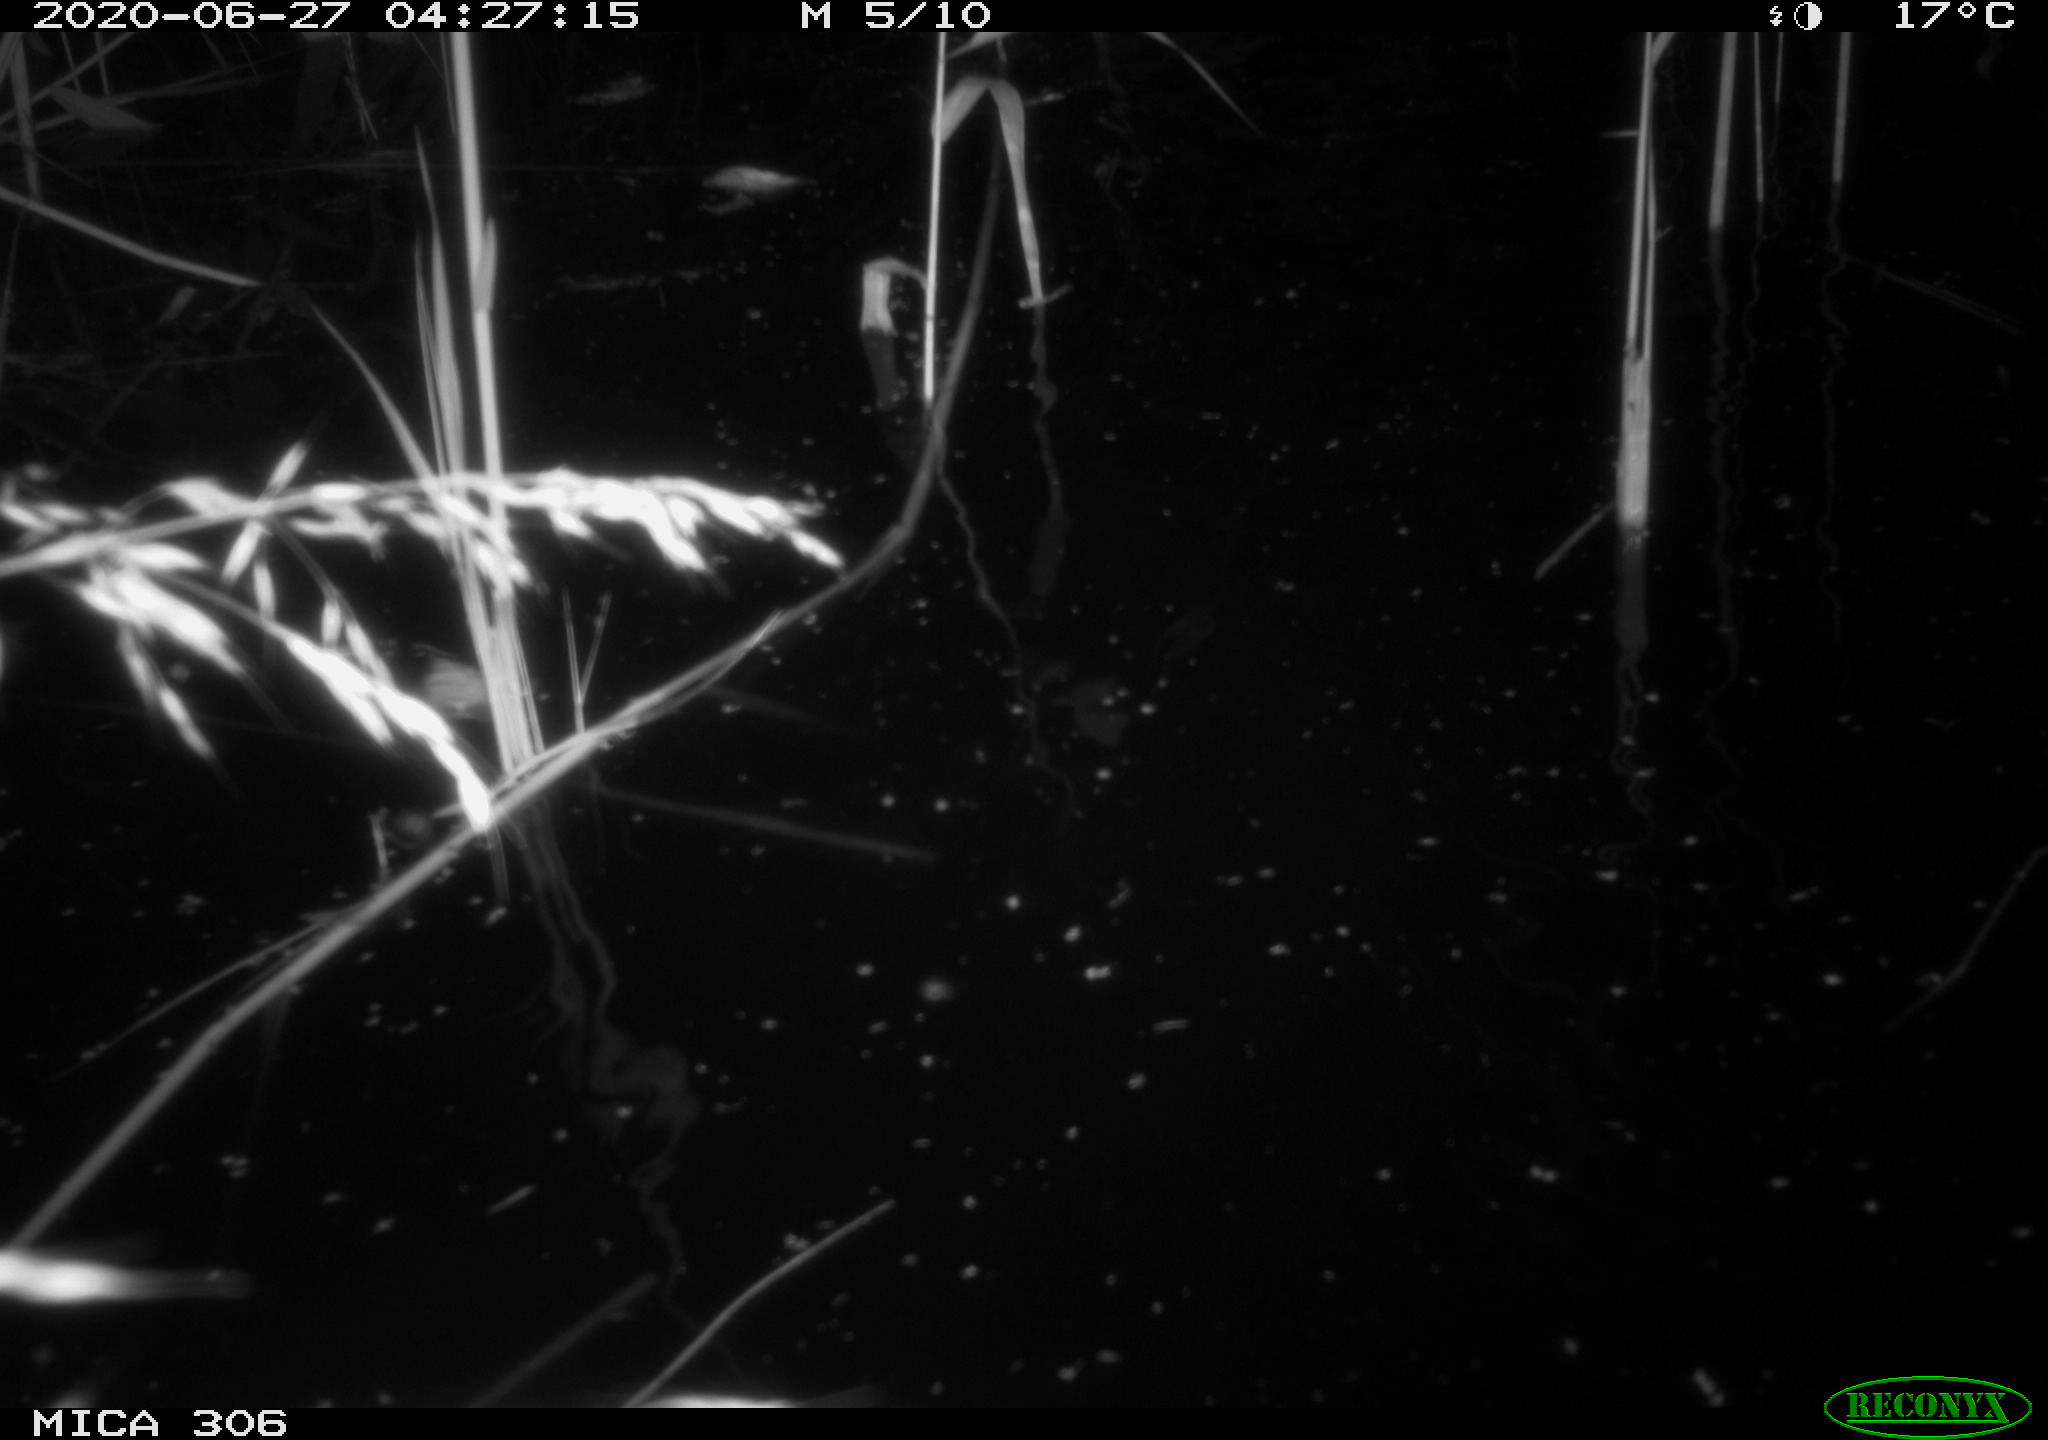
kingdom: Animalia
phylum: Chordata
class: Mammalia
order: Rodentia
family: Muridae
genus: Rattus
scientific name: Rattus norvegicus
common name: Brown rat
